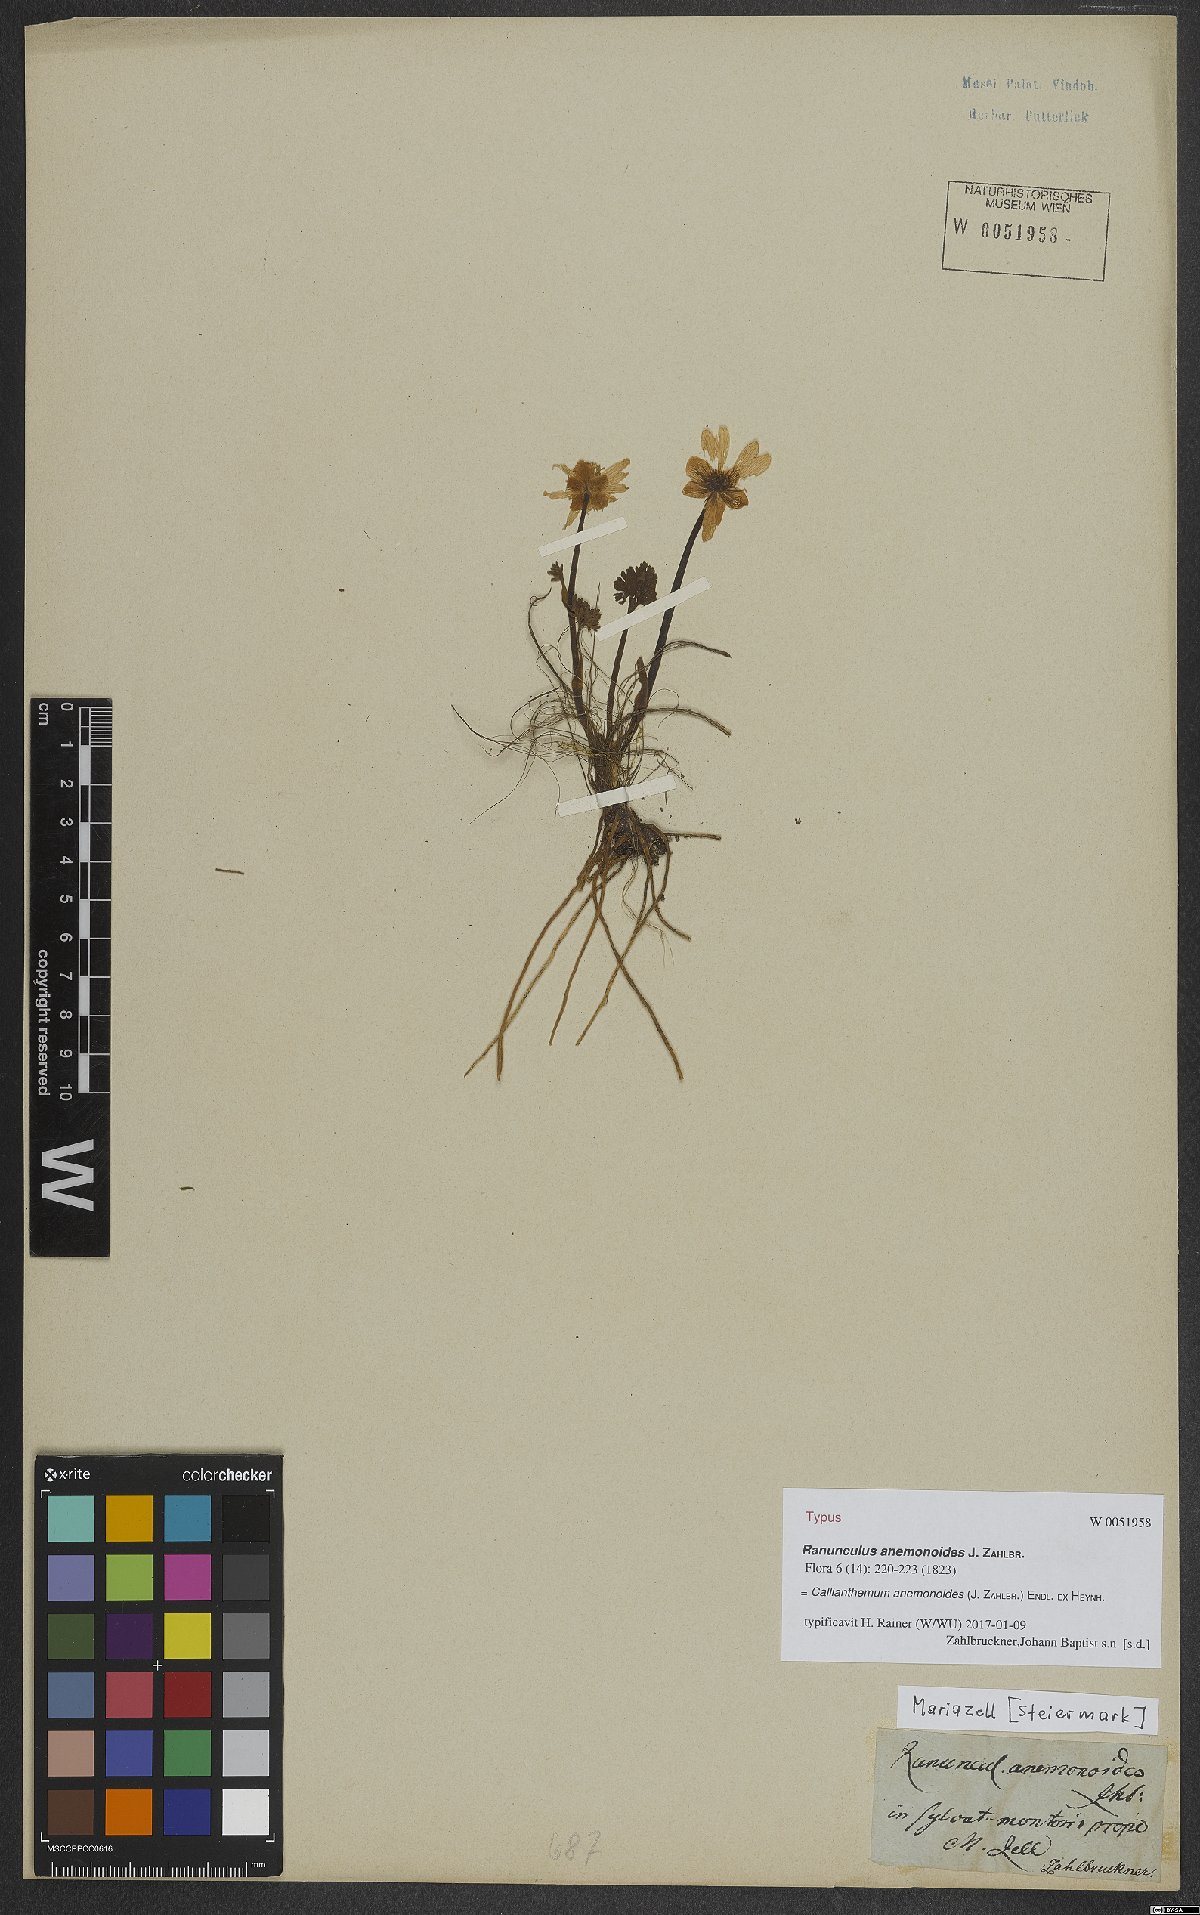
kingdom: Plantae
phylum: Tracheophyta
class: Magnoliopsida
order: Ranunculales
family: Ranunculaceae
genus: Callianthemum
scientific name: Callianthemum anemonoides
